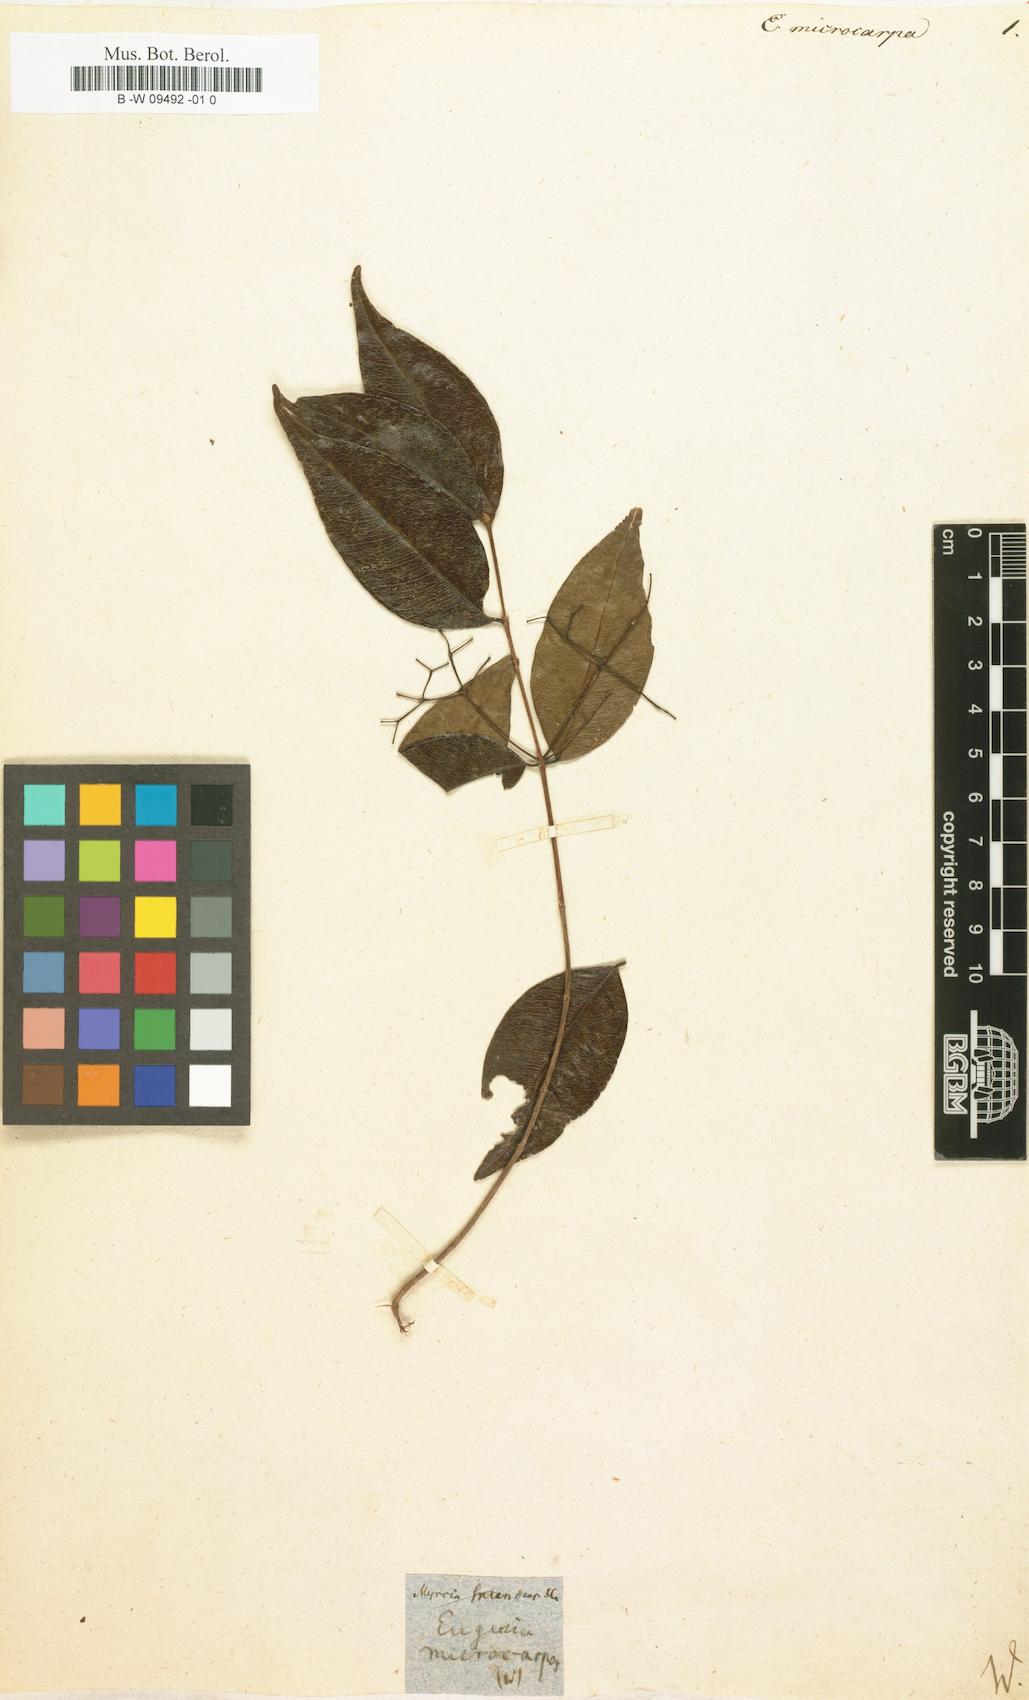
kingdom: Plantae
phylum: Tracheophyta
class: Magnoliopsida
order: Myrtales
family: Myrtaceae
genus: Eugenia
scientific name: Eugenia microcarpa
